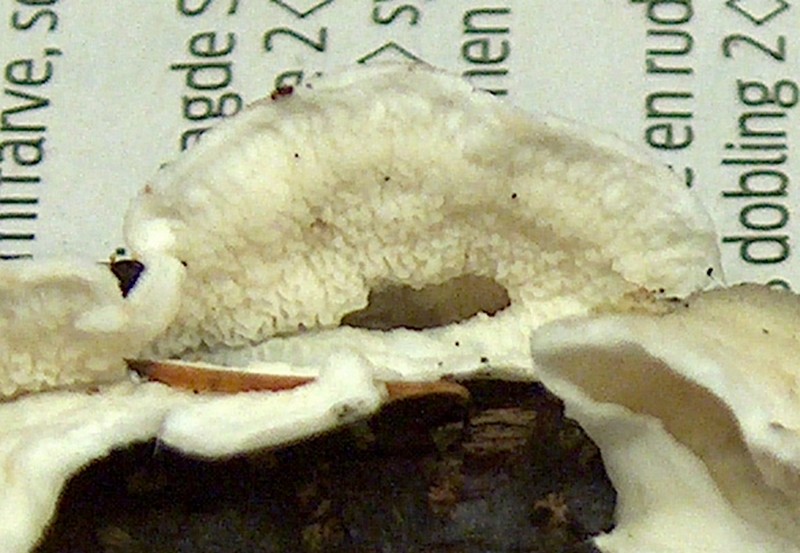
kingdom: Fungi
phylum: Basidiomycota
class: Agaricomycetes
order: Polyporales
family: Irpicaceae
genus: Byssomerulius
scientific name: Byssomerulius corium
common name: læder-åresvamp
